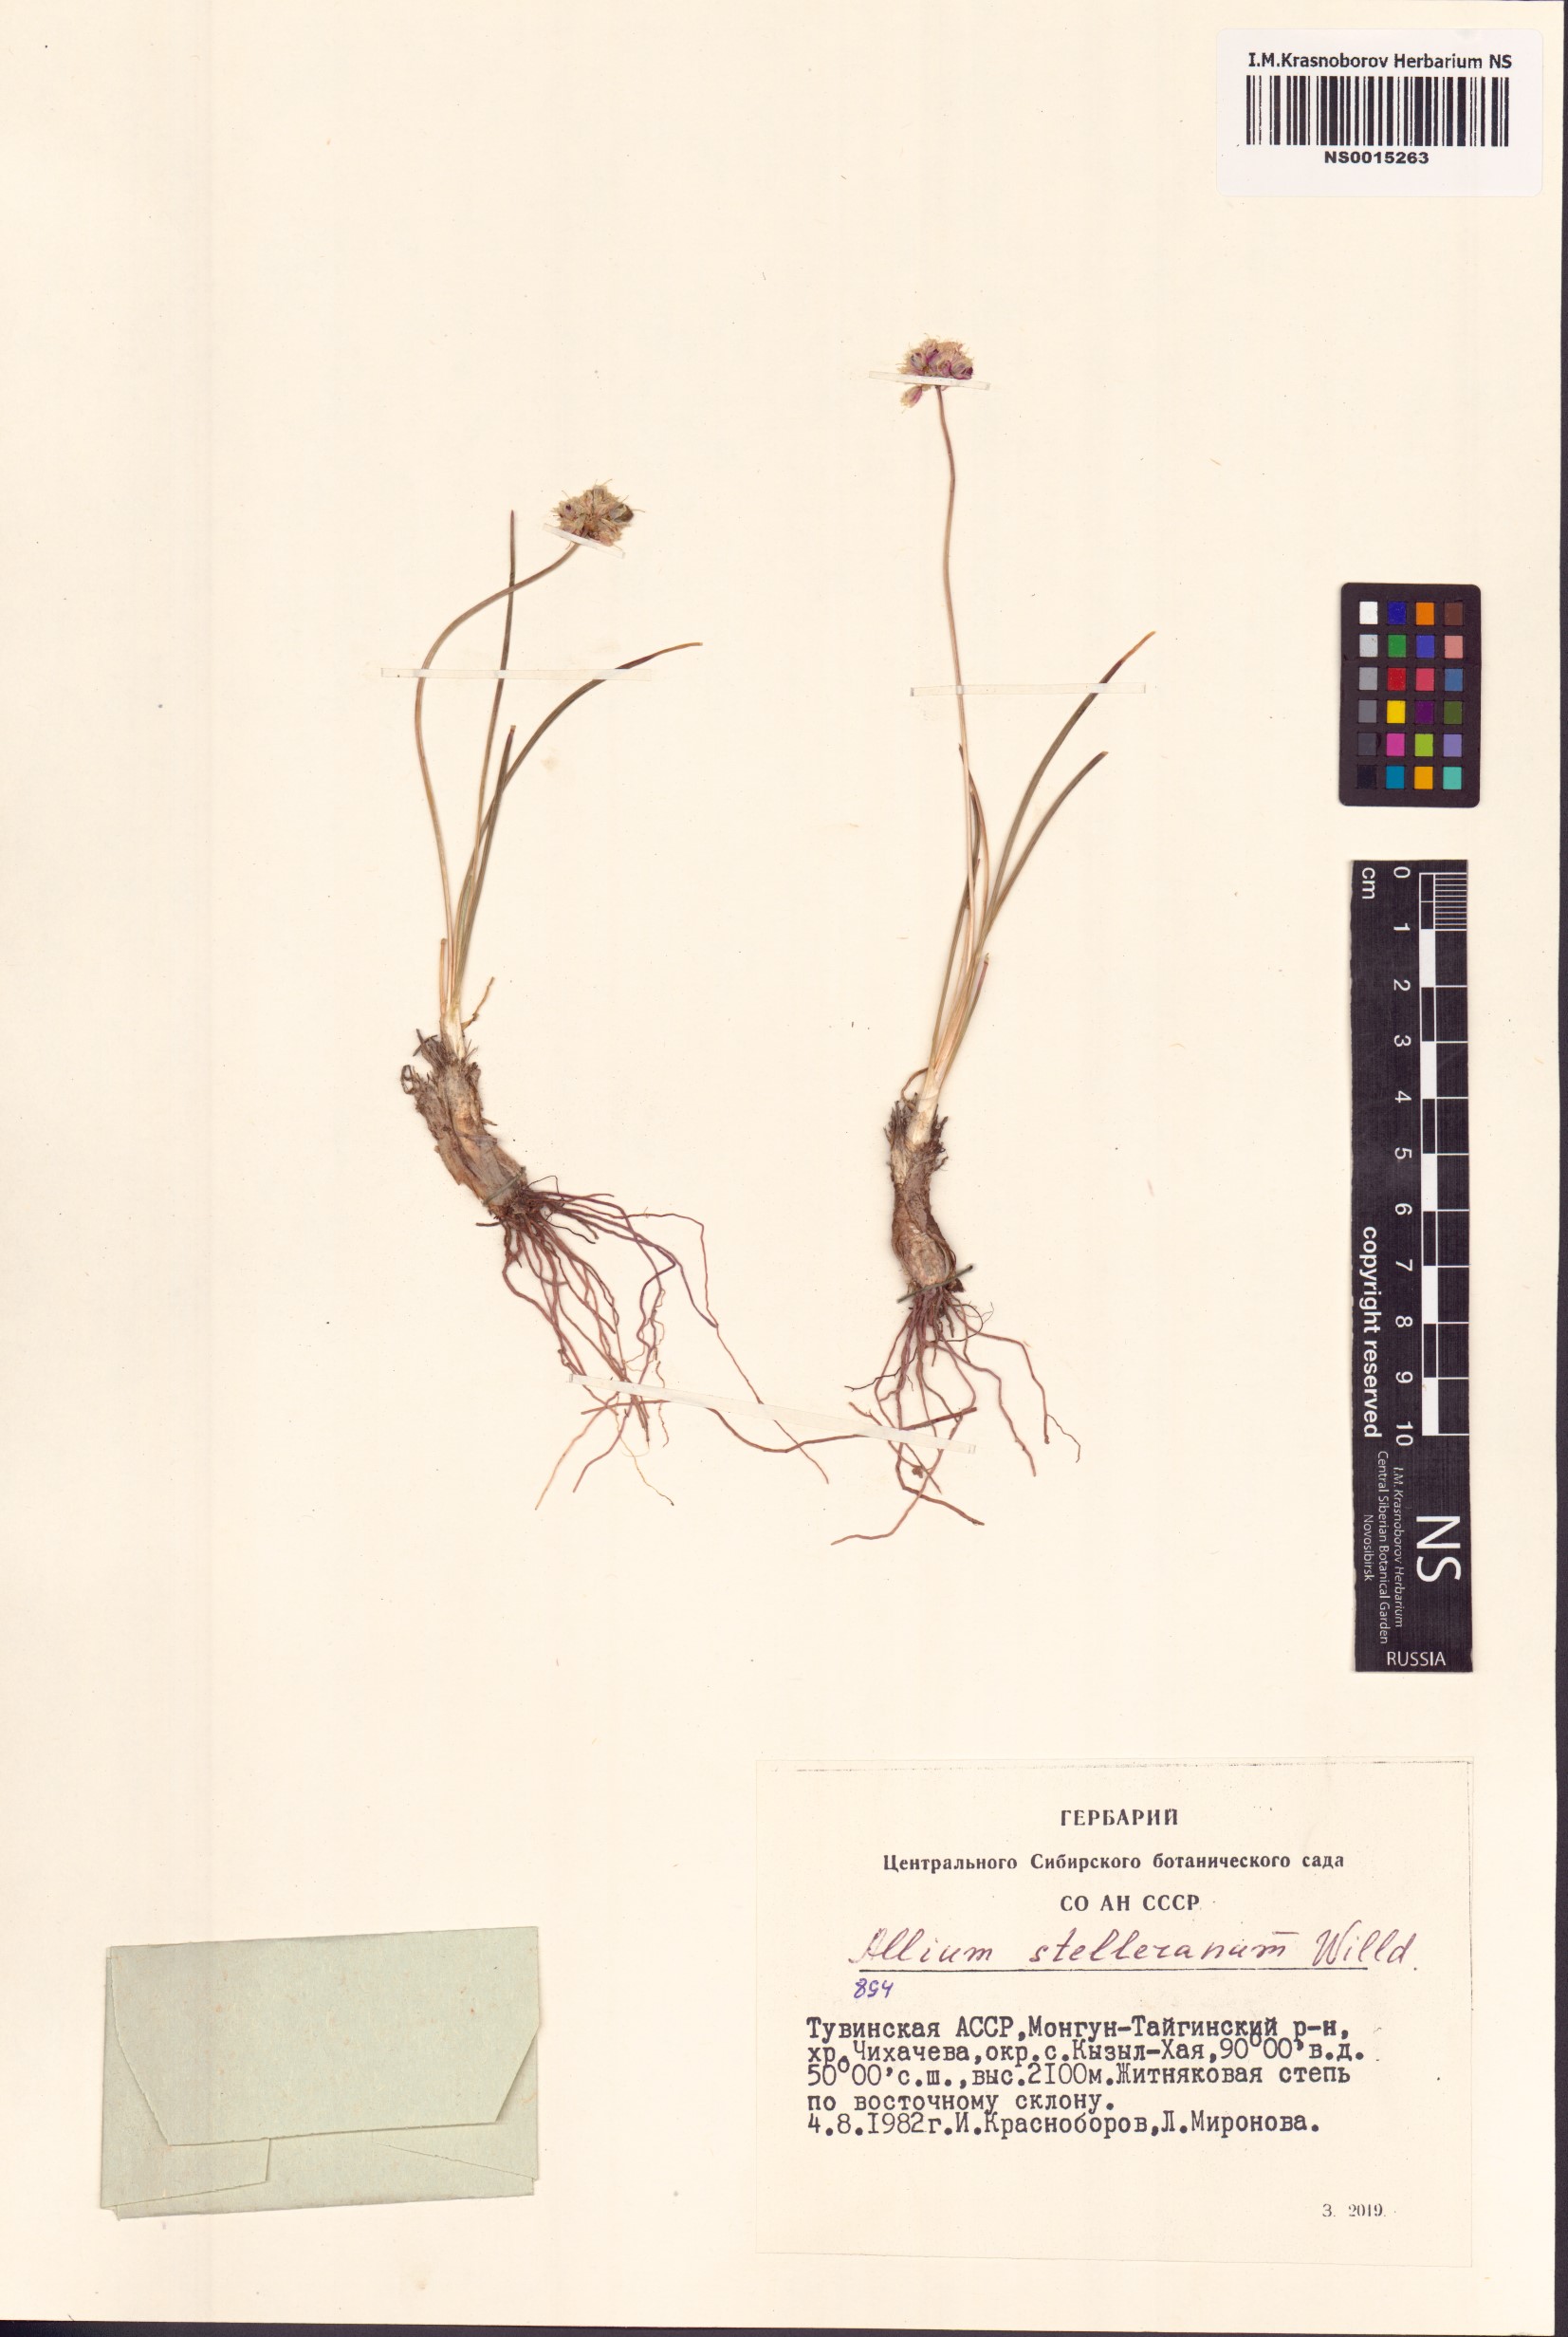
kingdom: Plantae
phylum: Tracheophyta
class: Liliopsida
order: Asparagales
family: Amaryllidaceae
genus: Allium
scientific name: Allium stellerianum
